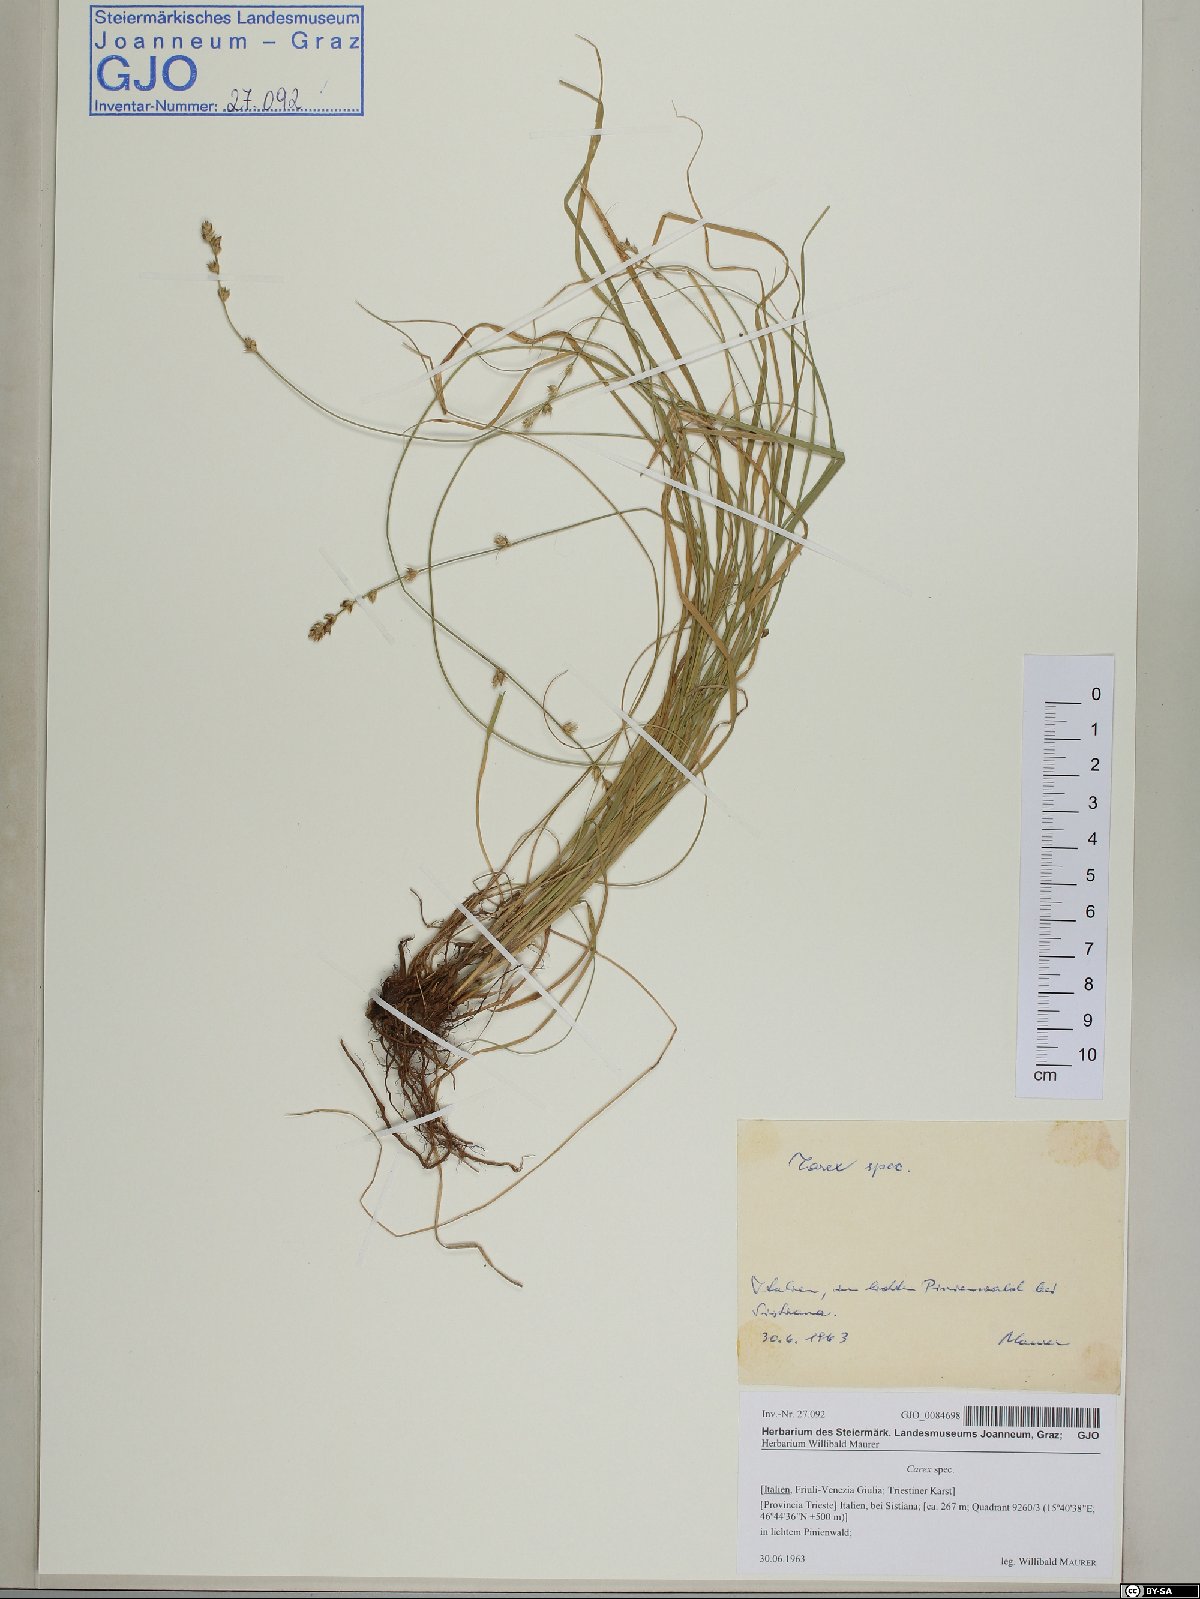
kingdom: Plantae
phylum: Tracheophyta
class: Liliopsida
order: Poales
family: Cyperaceae
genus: Carex
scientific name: Carex
